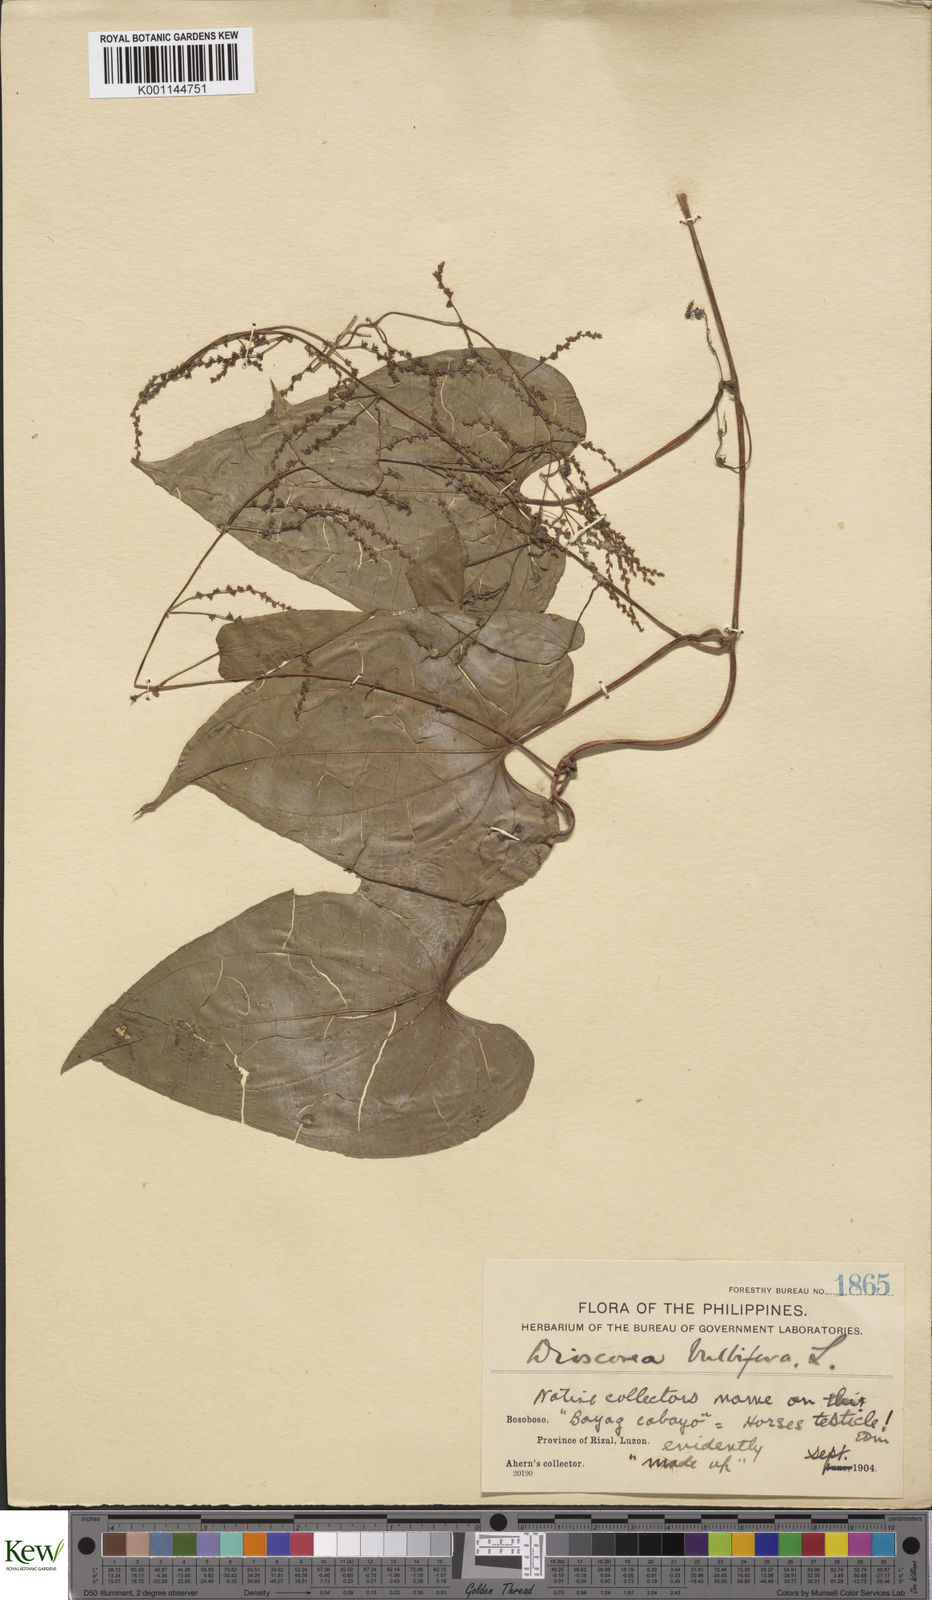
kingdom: Plantae
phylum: Tracheophyta
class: Liliopsida
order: Dioscoreales
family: Dioscoreaceae
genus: Dioscorea
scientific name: Dioscorea bulbifera
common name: Air yam
